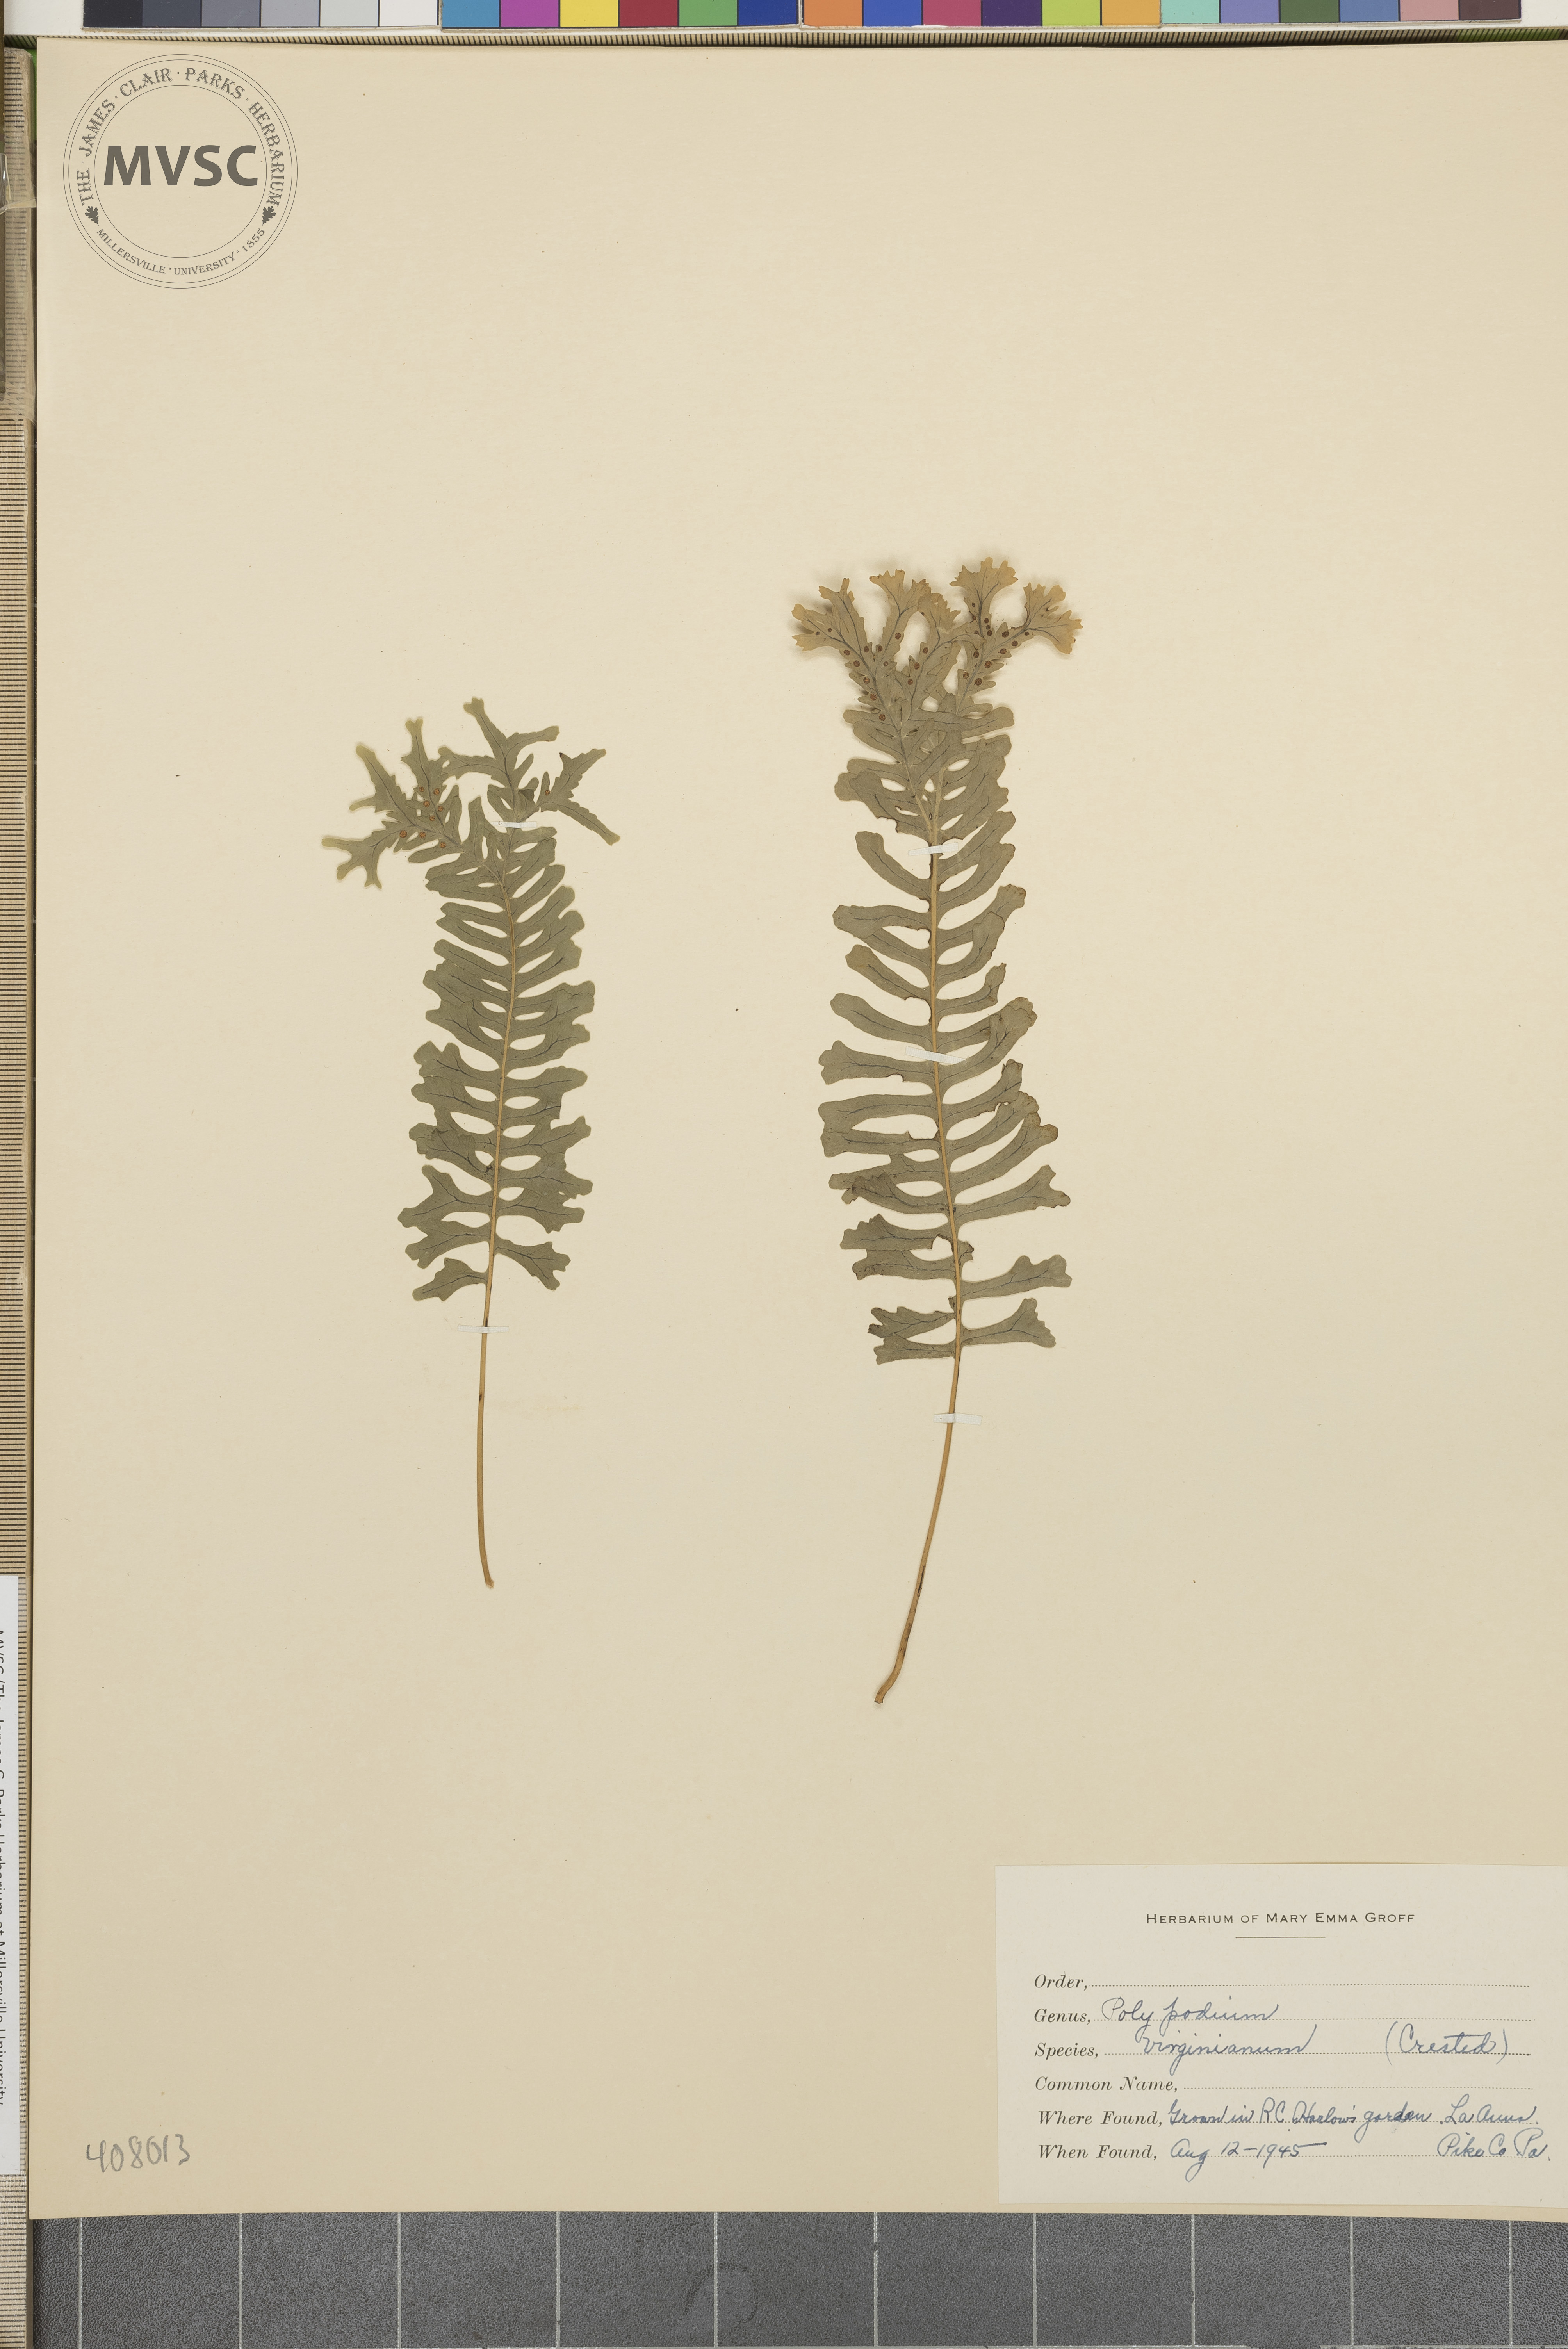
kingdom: Plantae
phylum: Tracheophyta
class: Polypodiopsida
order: Polypodiales
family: Polypodiaceae
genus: Polypodium
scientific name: Polypodium virginianum
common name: American wall fern
